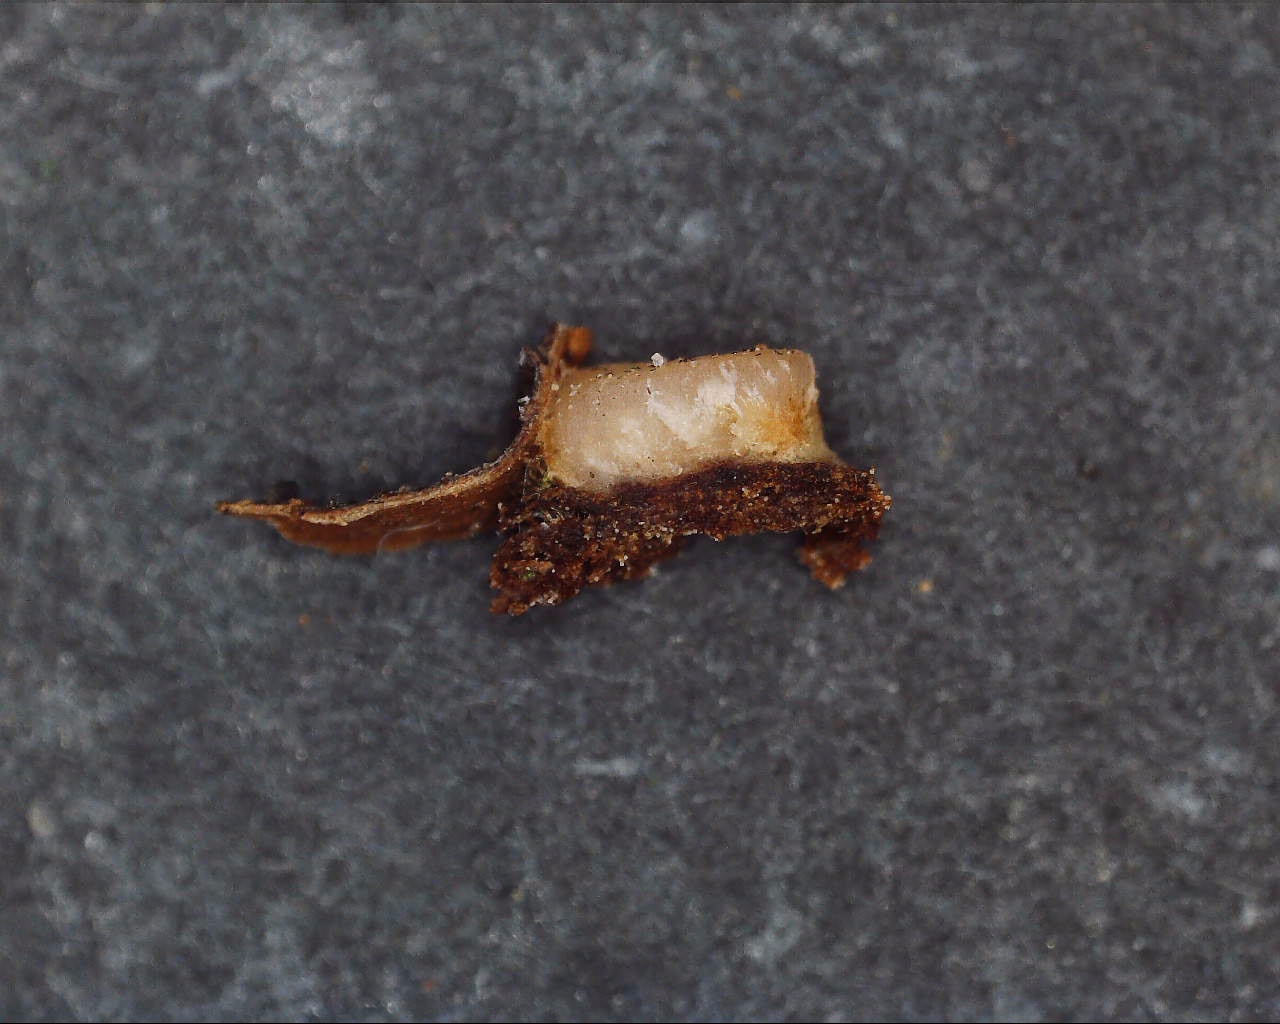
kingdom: Fungi
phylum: Basidiomycota
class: Pucciniomycetes
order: Platygloeales
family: Platygloeaceae
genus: Platygloea
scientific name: Platygloea disciformis
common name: linde-slimklat
